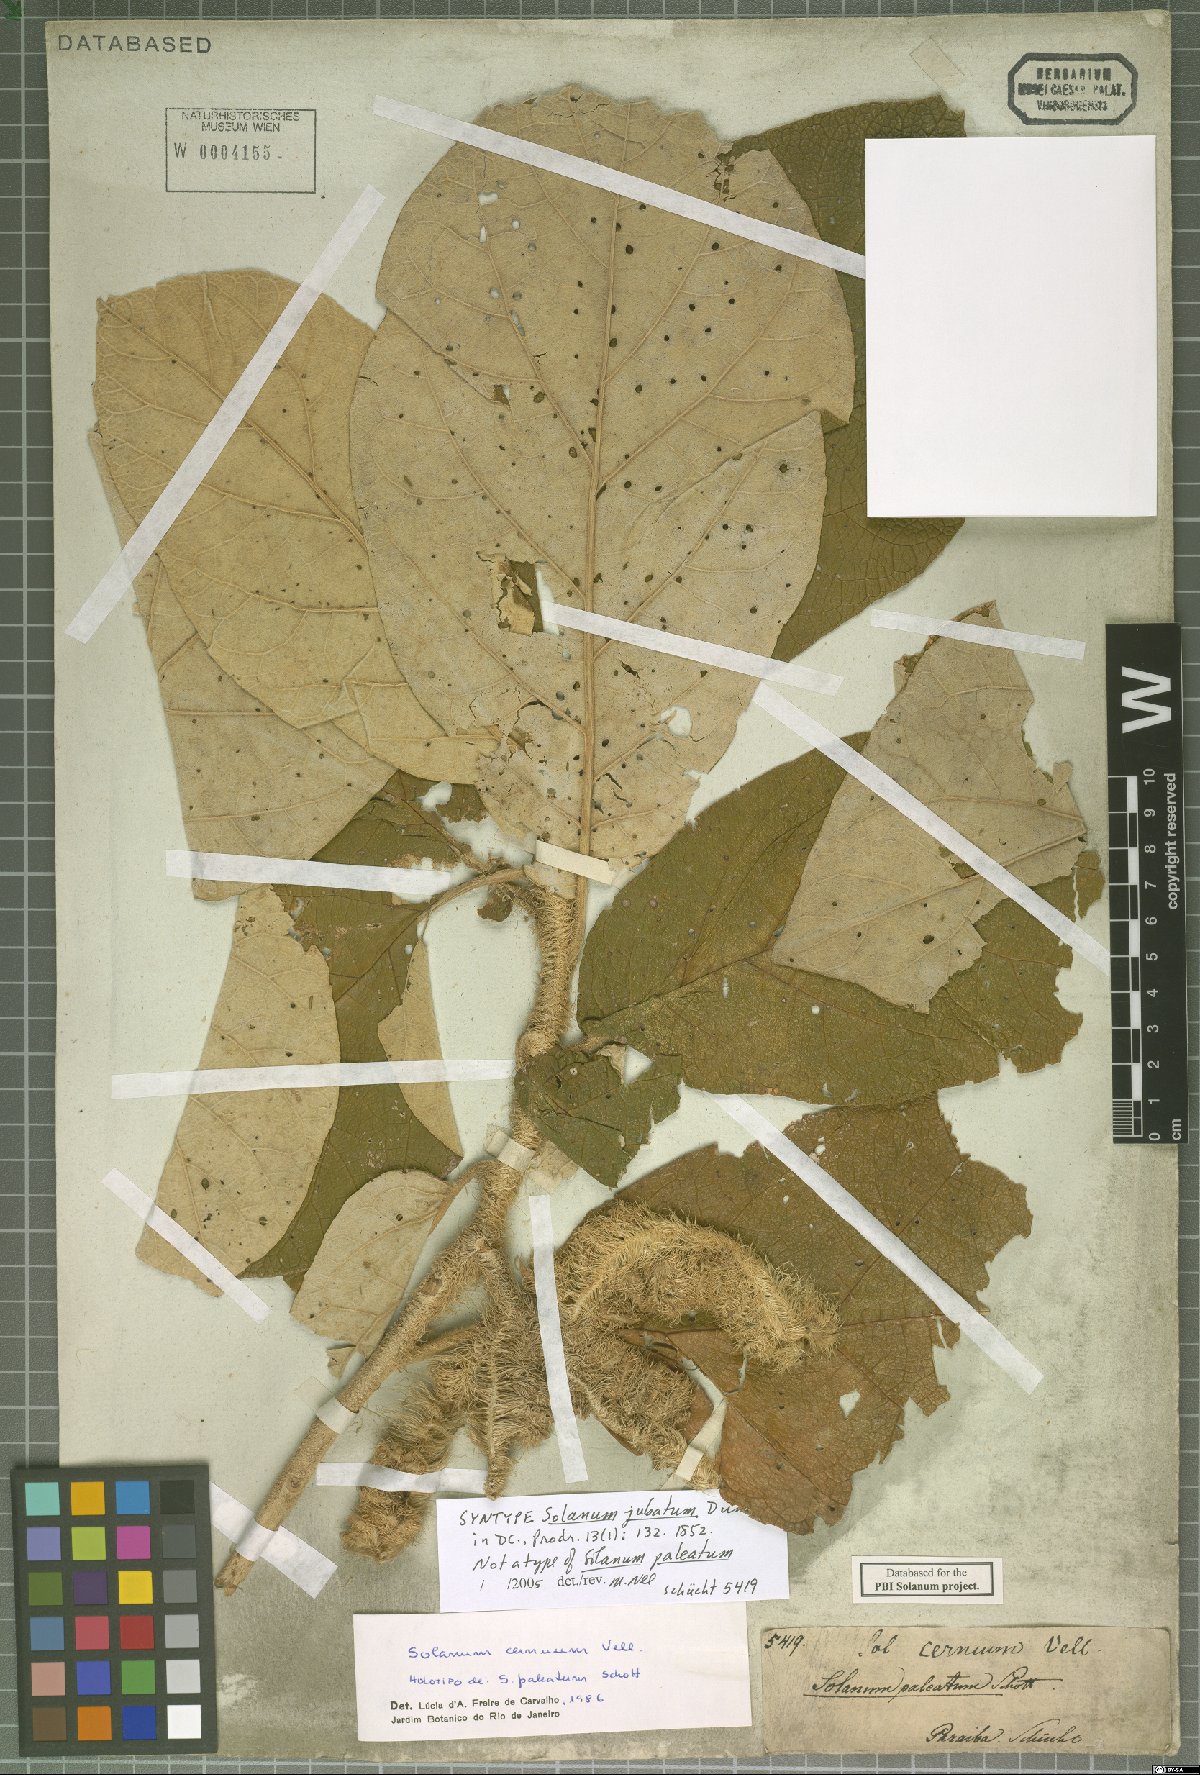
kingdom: Plantae
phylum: Tracheophyta
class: Magnoliopsida
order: Solanales
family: Solanaceae
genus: Solanum
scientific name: Solanum cernuum
